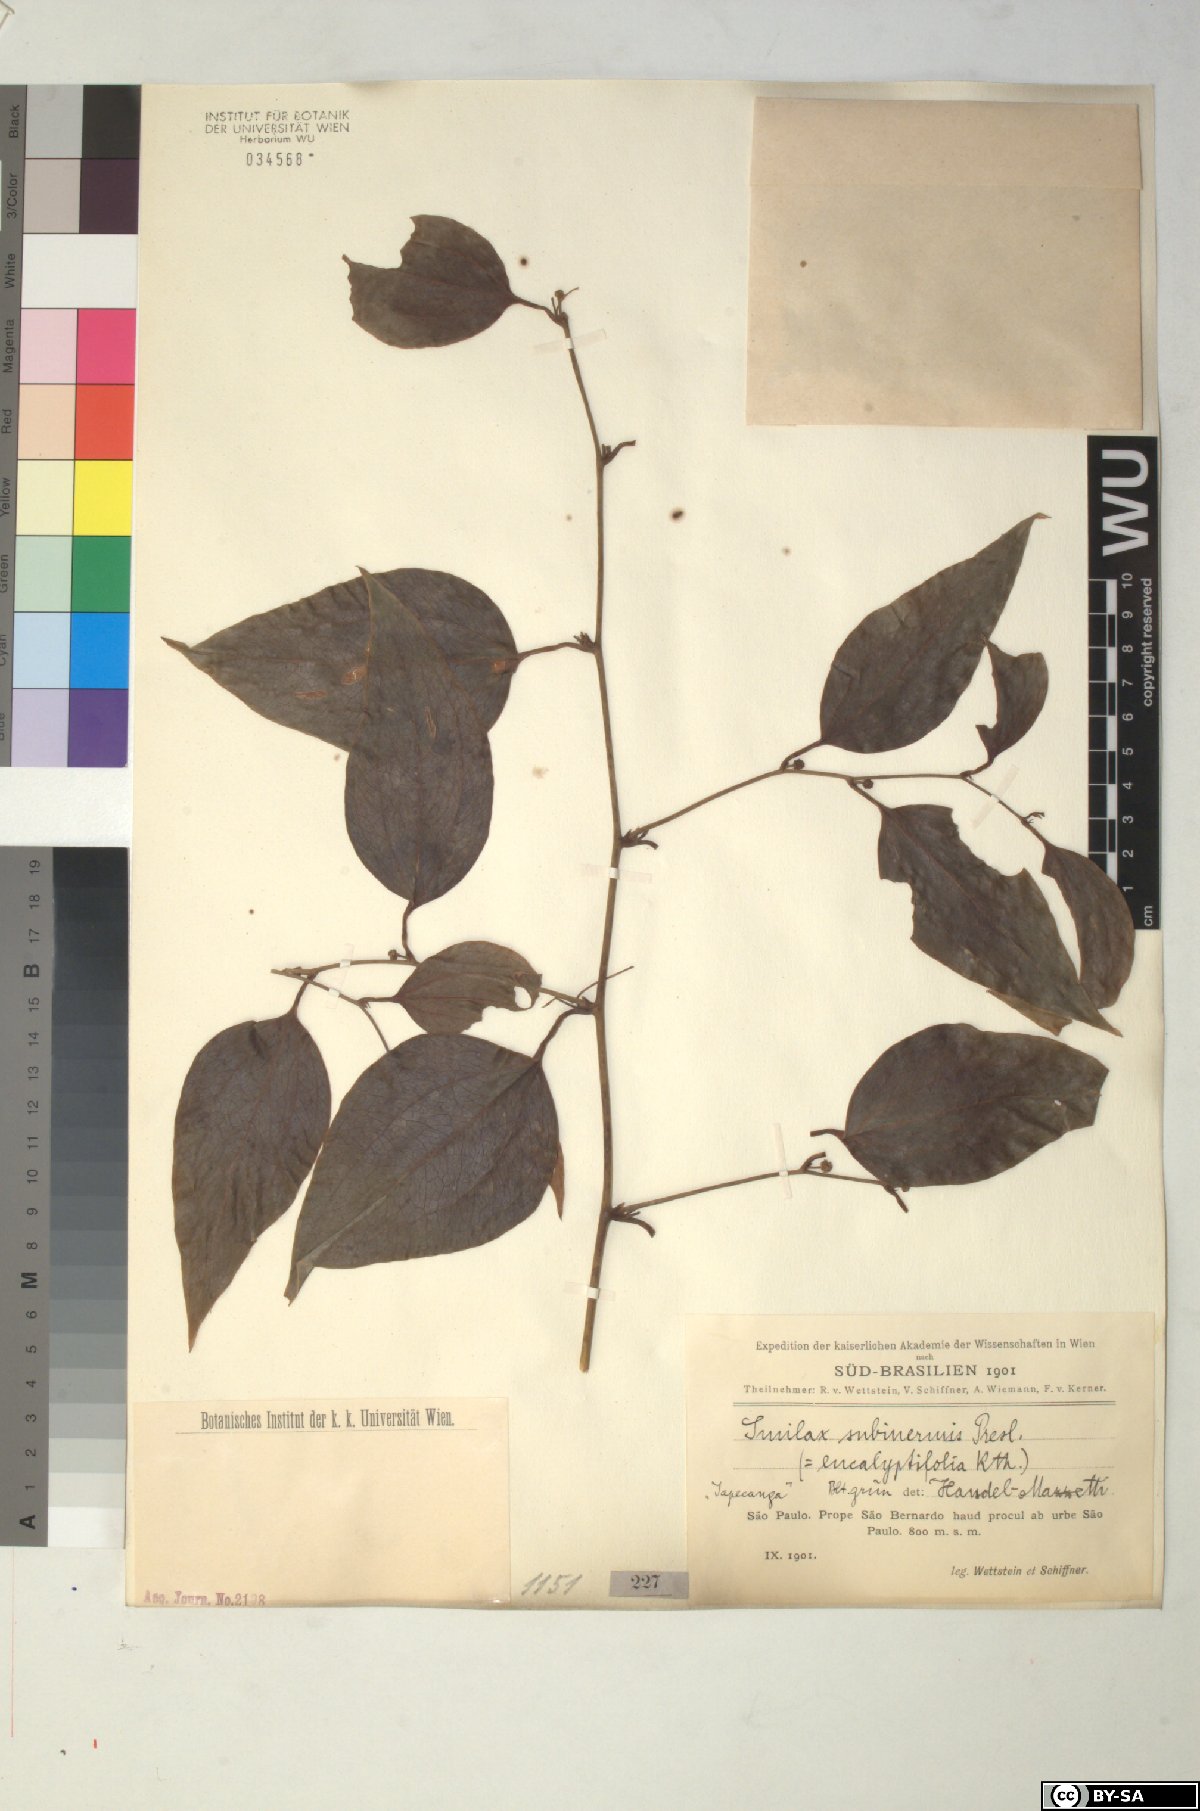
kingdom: Plantae
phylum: Tracheophyta
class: Liliopsida
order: Liliales
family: Smilacaceae
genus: Smilax
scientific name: Smilax subinermis
